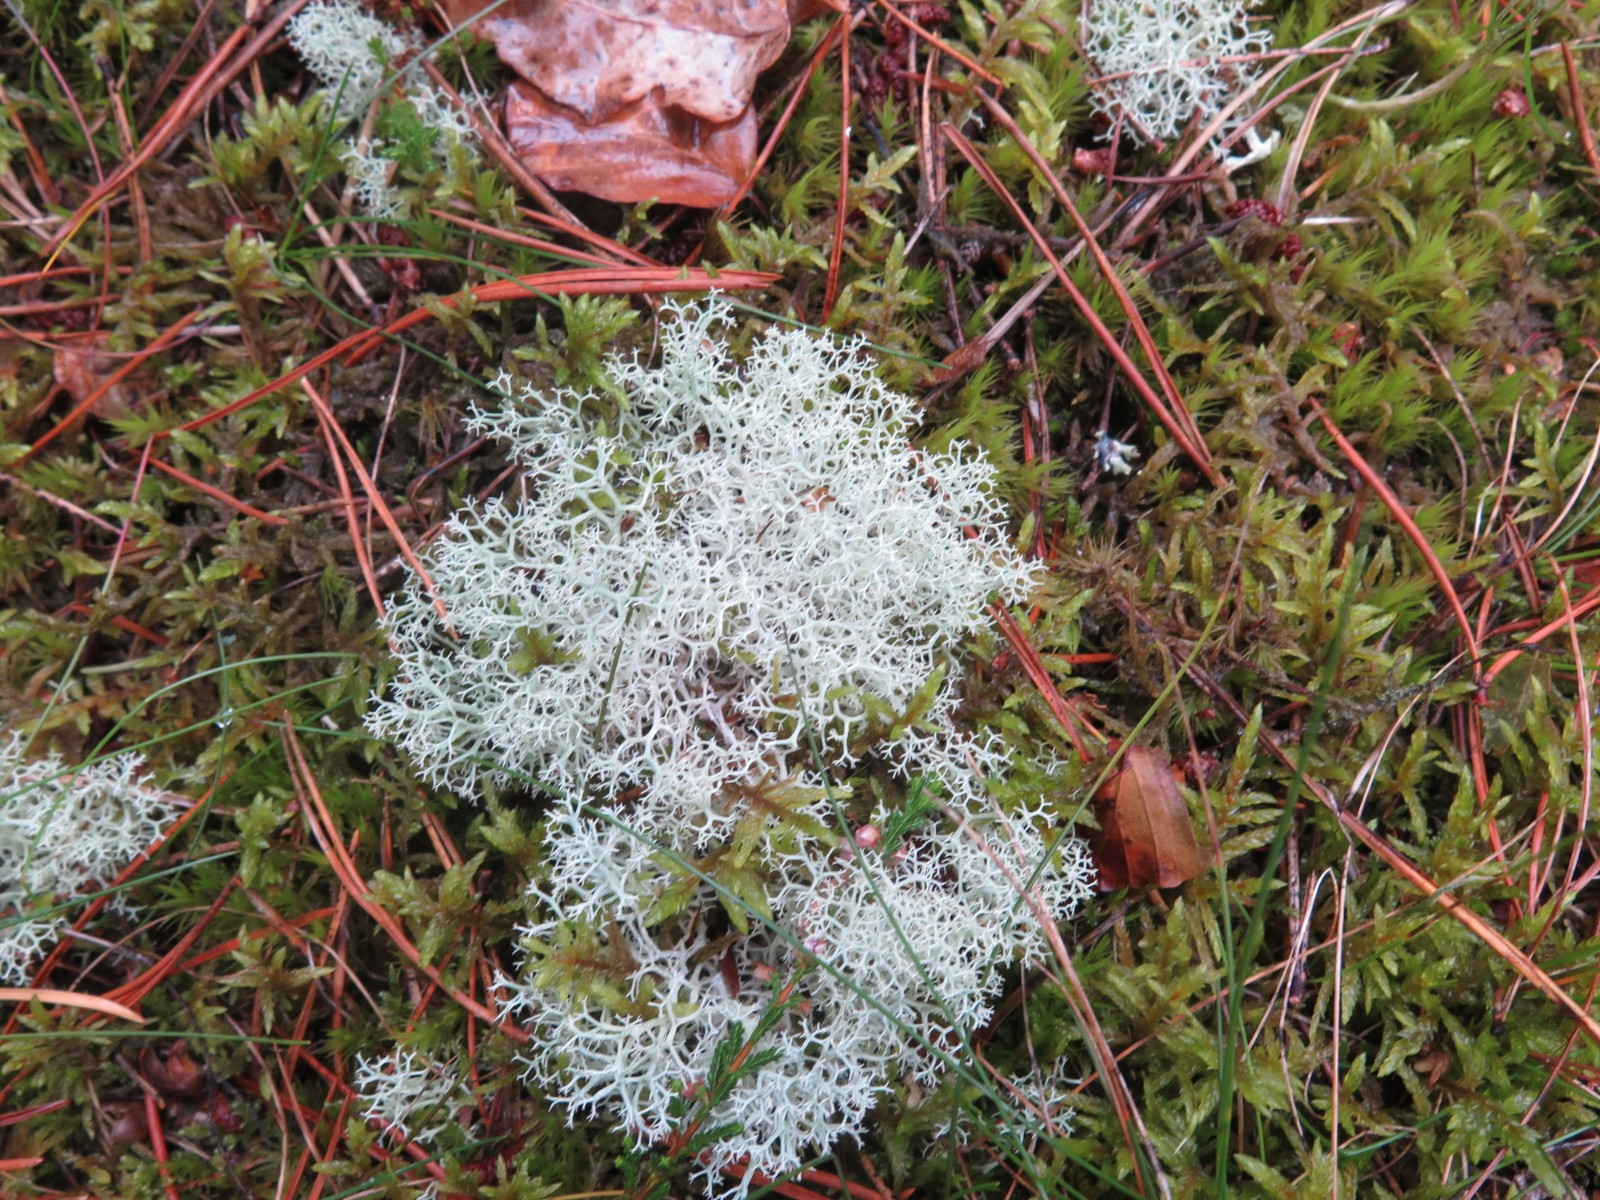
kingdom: Fungi
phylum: Ascomycota
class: Lecanoromycetes
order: Lecanorales
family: Cladoniaceae
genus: Cladonia
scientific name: Cladonia portentosa
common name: hede-rensdyrlav
